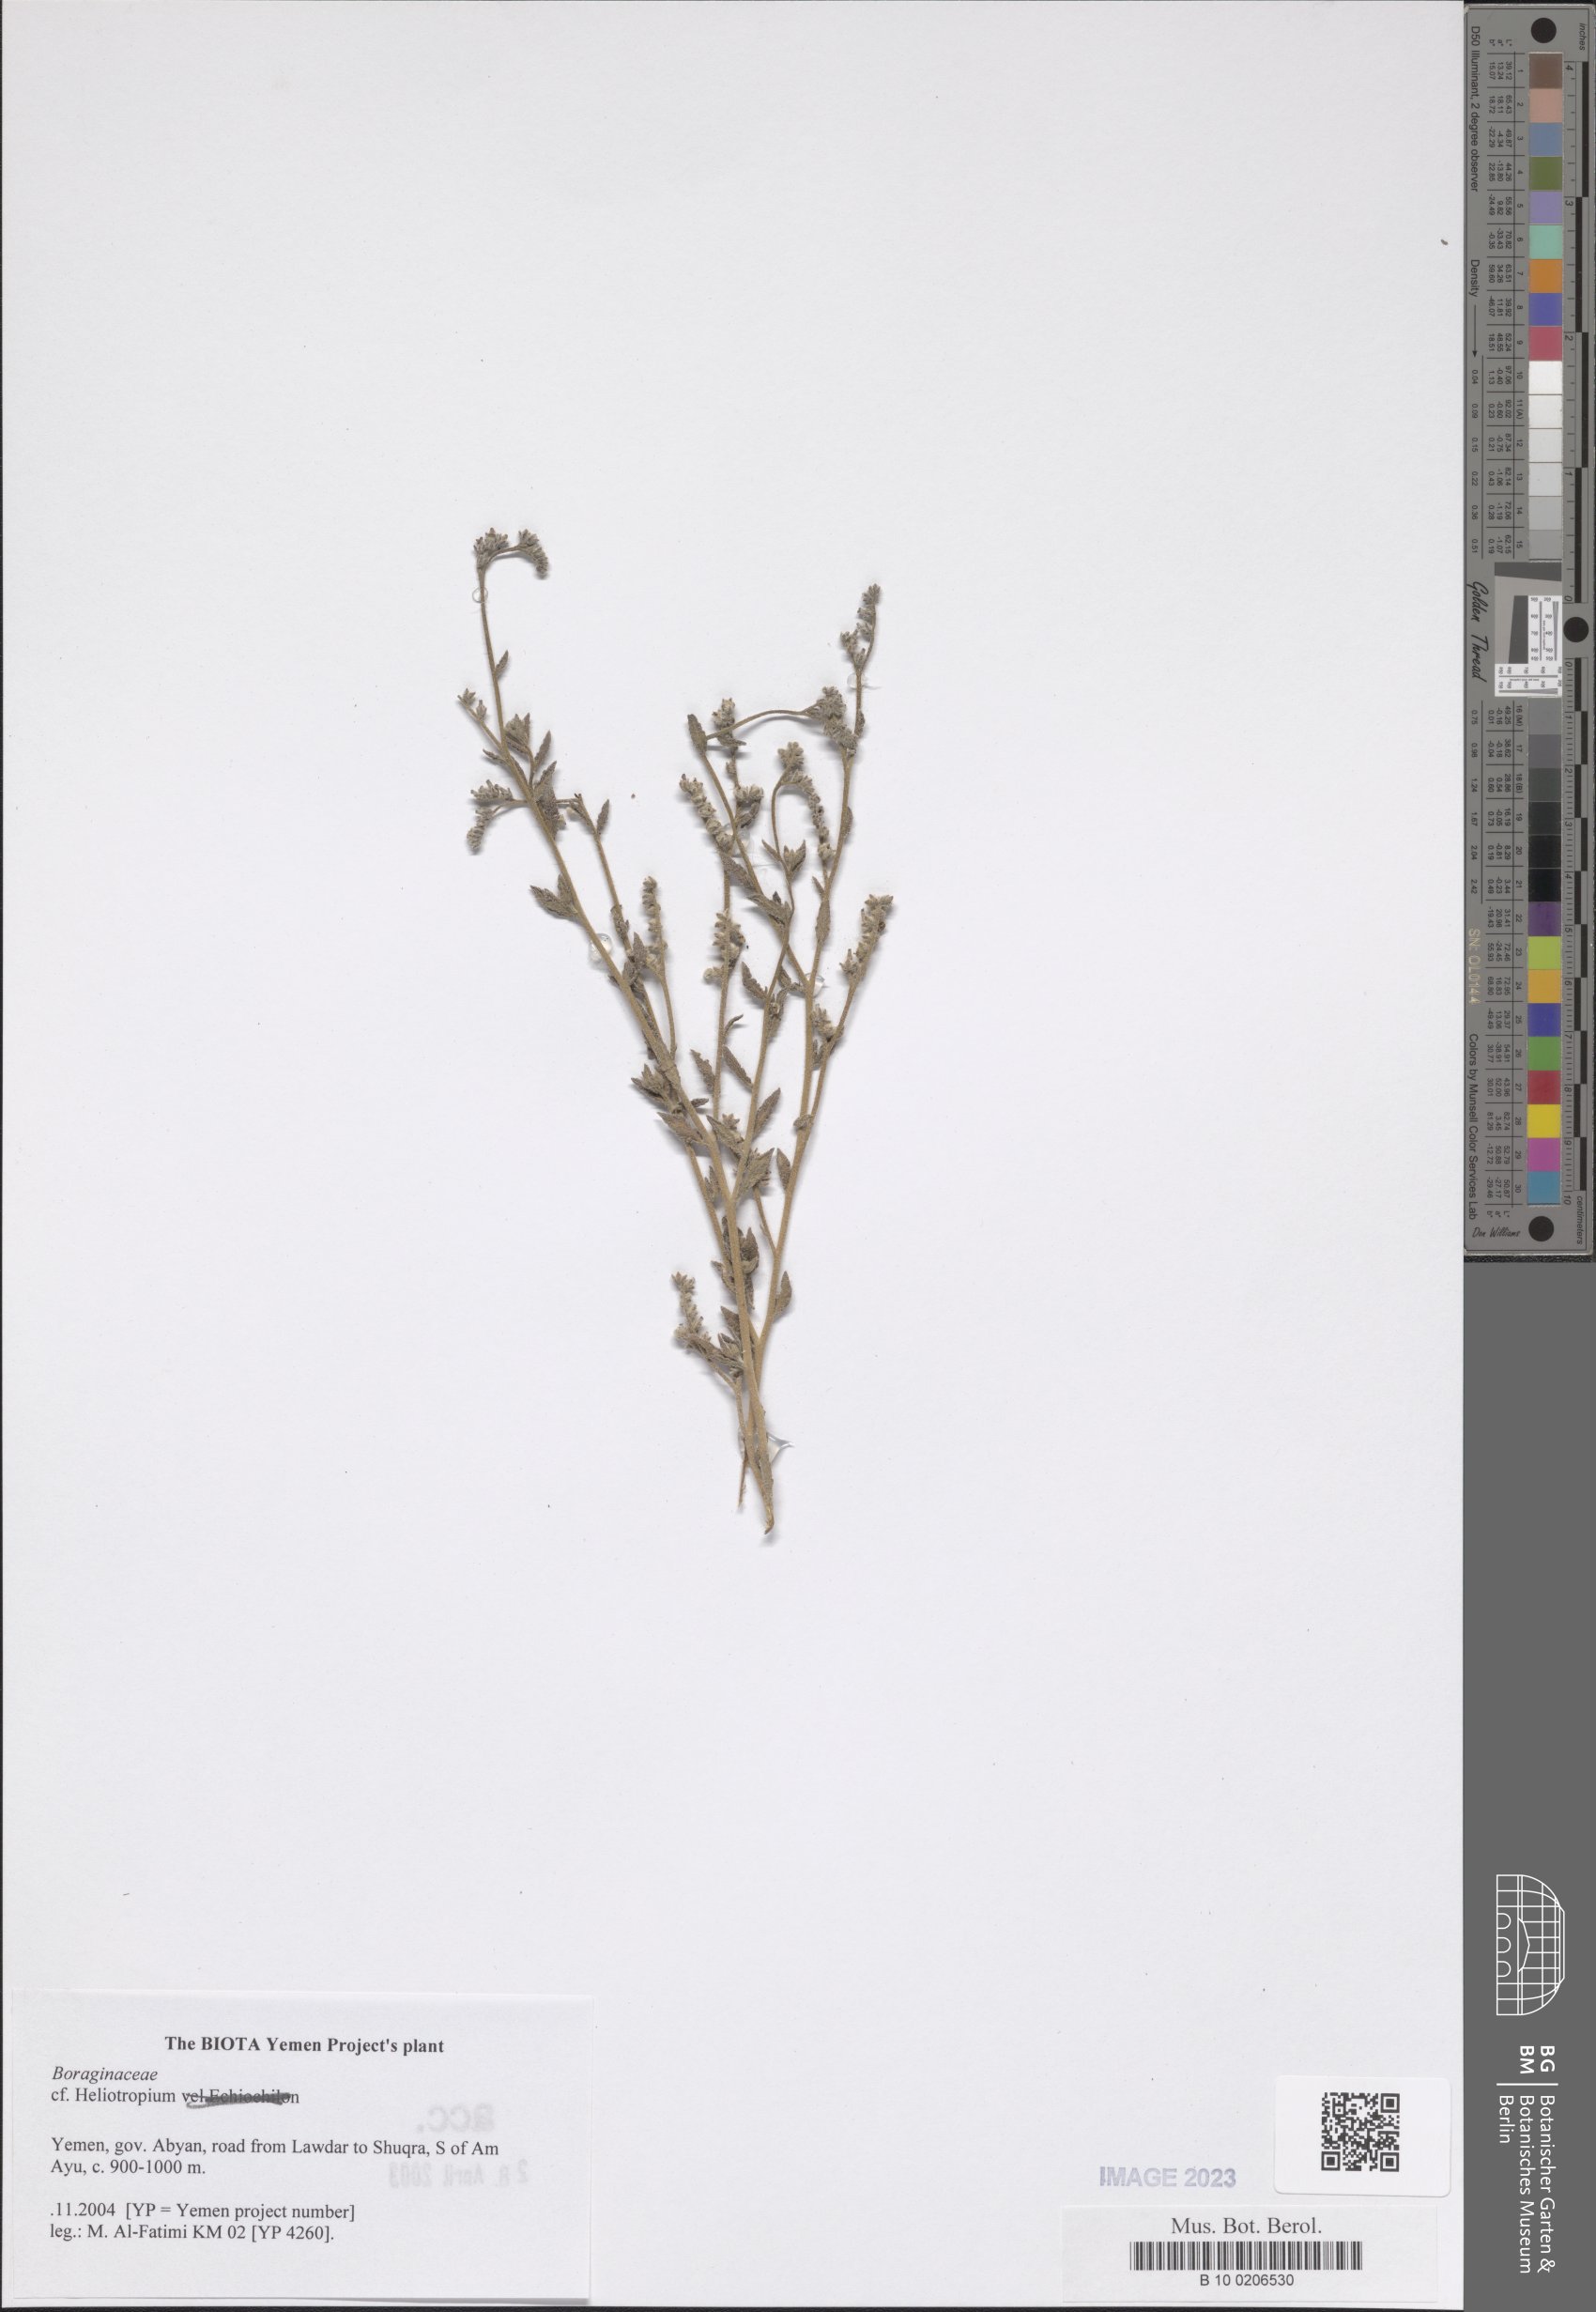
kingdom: Plantae
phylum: Tracheophyta
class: Magnoliopsida
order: Boraginales
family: Boraginaceae
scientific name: Boraginaceae
